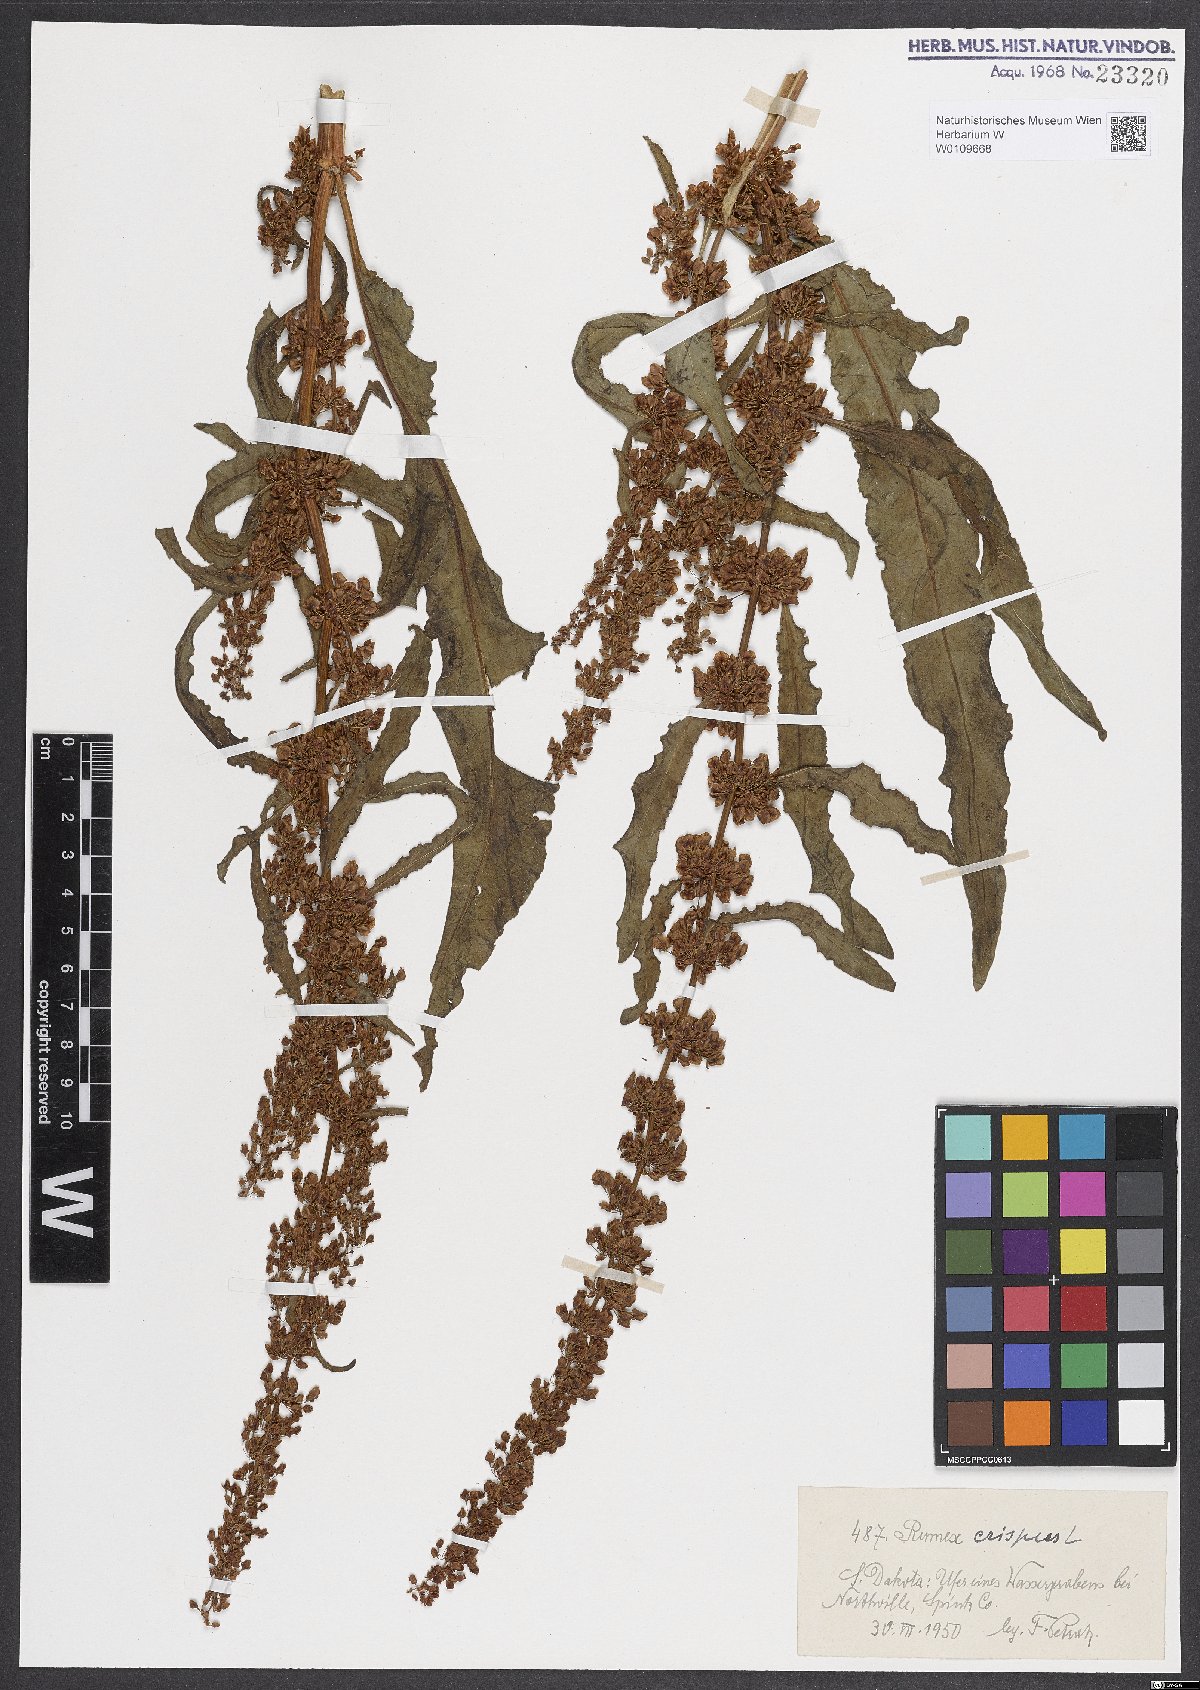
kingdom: Plantae
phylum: Tracheophyta
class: Magnoliopsida
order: Caryophyllales
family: Polygonaceae
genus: Rumex
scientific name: Rumex crispus
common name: Curled dock
